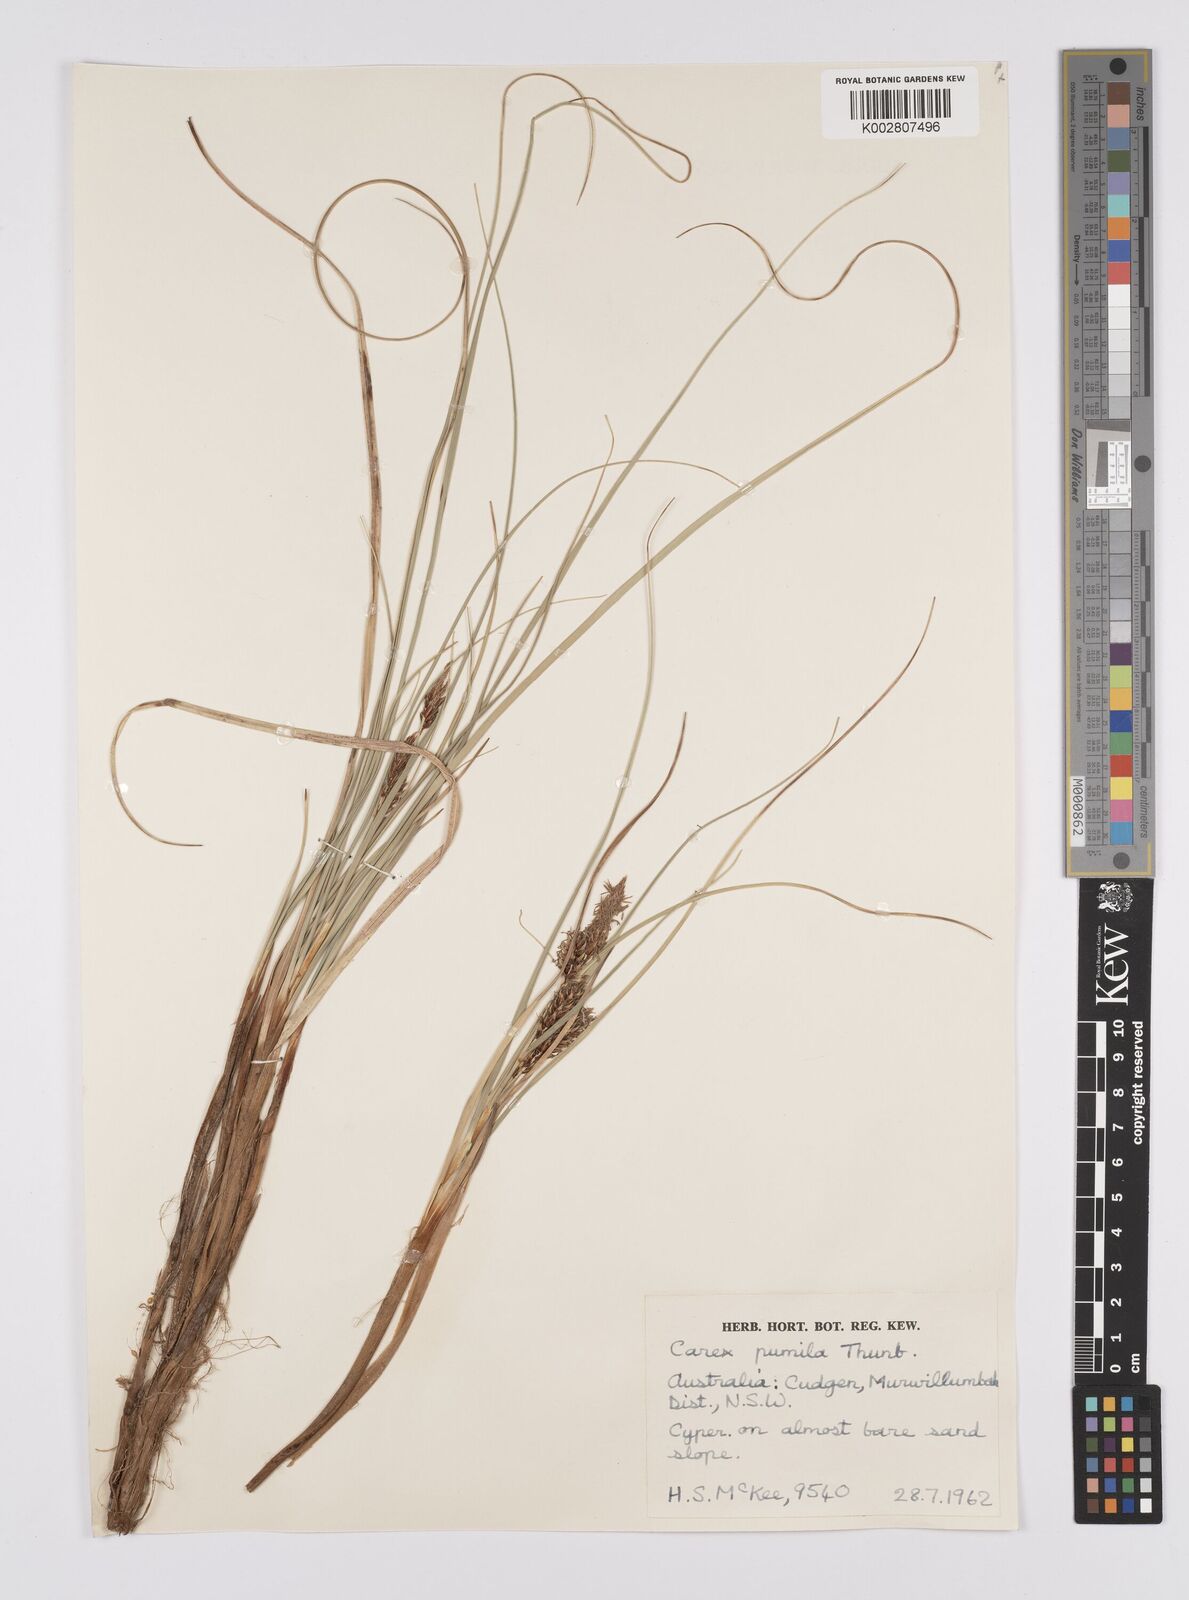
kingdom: Plantae
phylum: Tracheophyta
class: Liliopsida
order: Poales
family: Cyperaceae
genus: Carex
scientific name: Carex pumila
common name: Dwarf sedge
